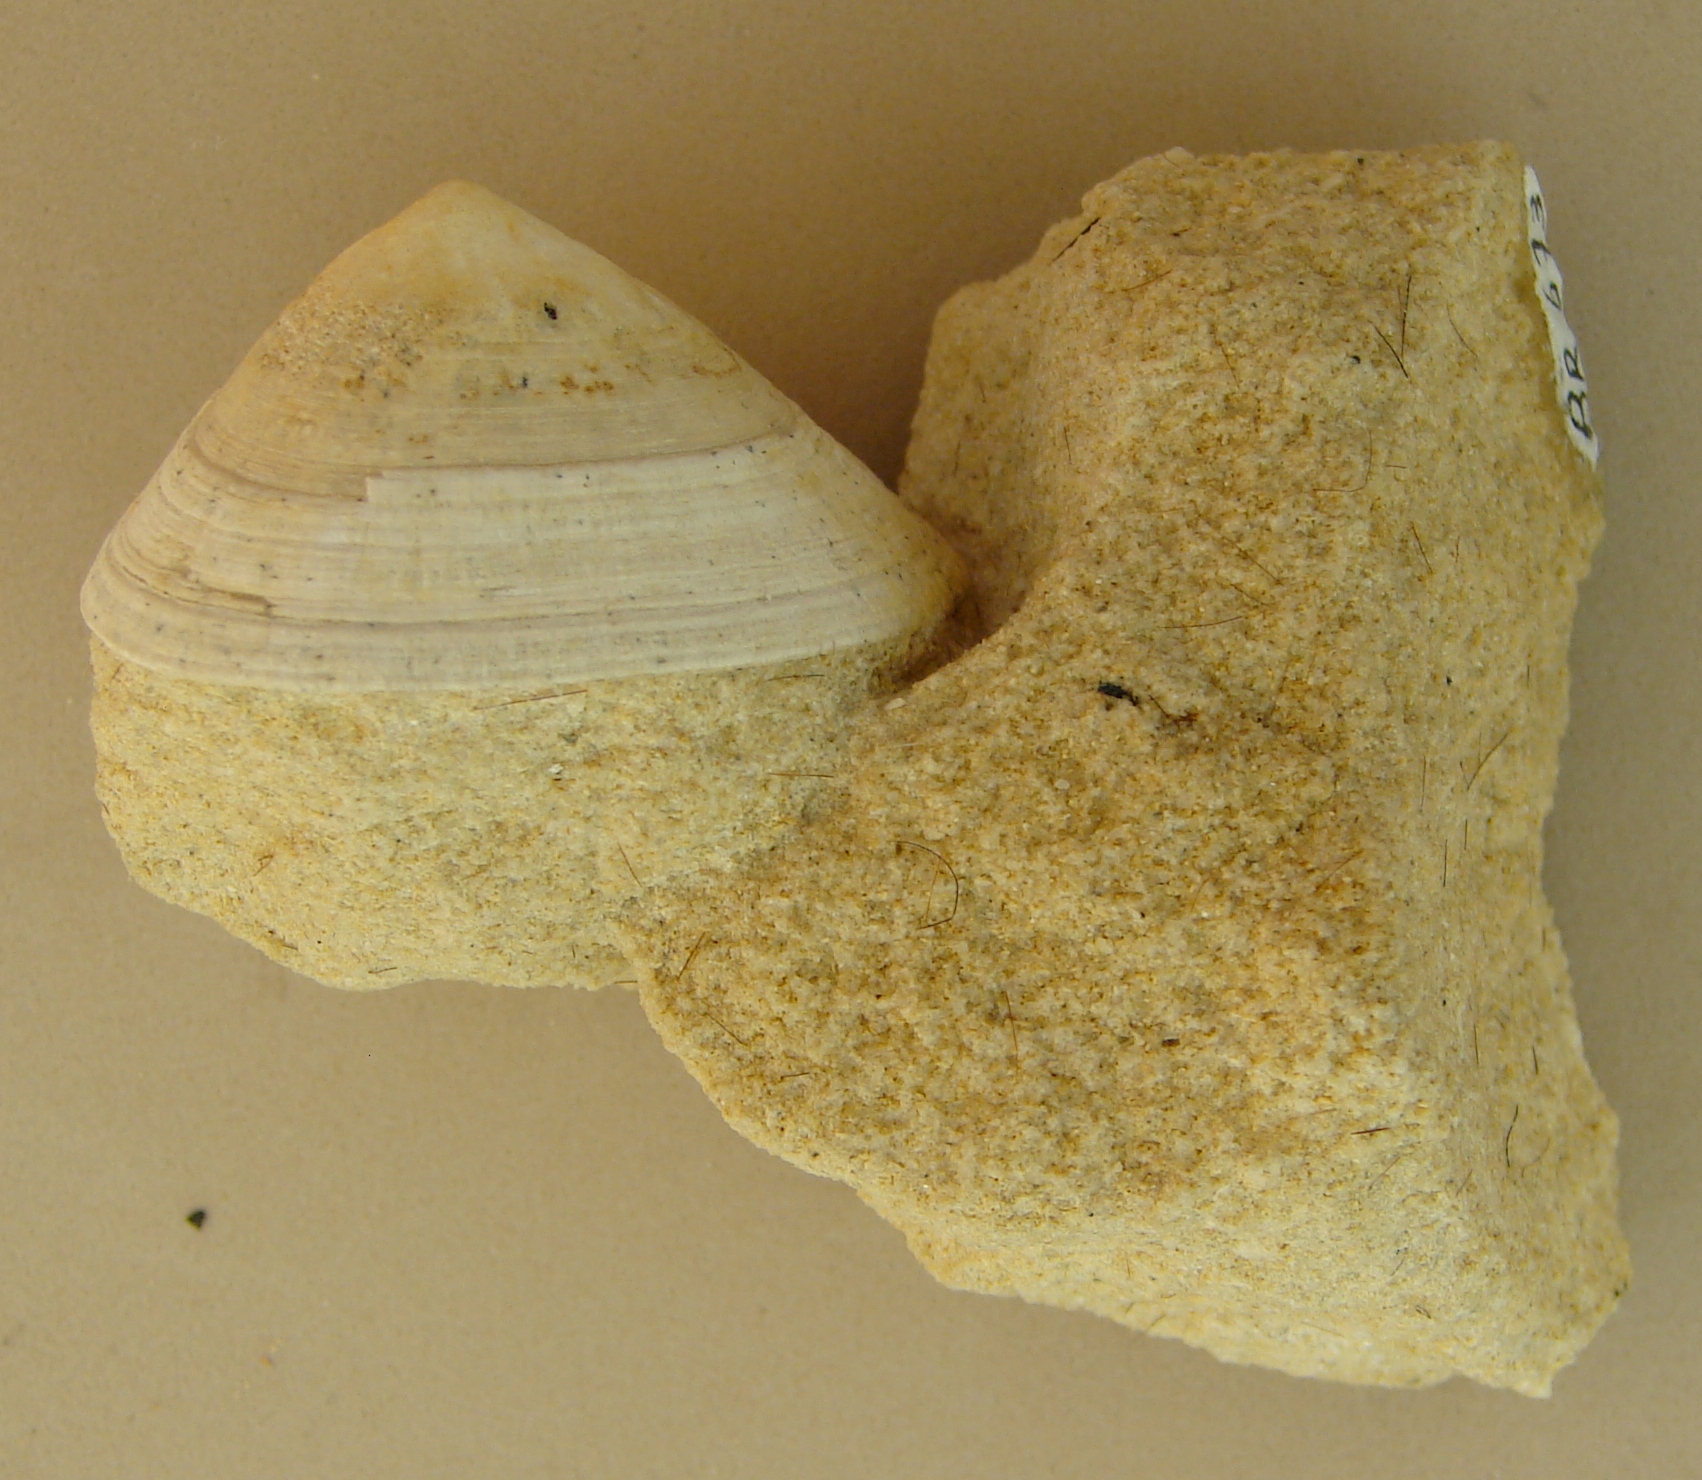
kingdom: Animalia
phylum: Mollusca
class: Gastropoda
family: Acmaeadae
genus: Scurriopsis
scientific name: Scurriopsis Patella hettangiensis
